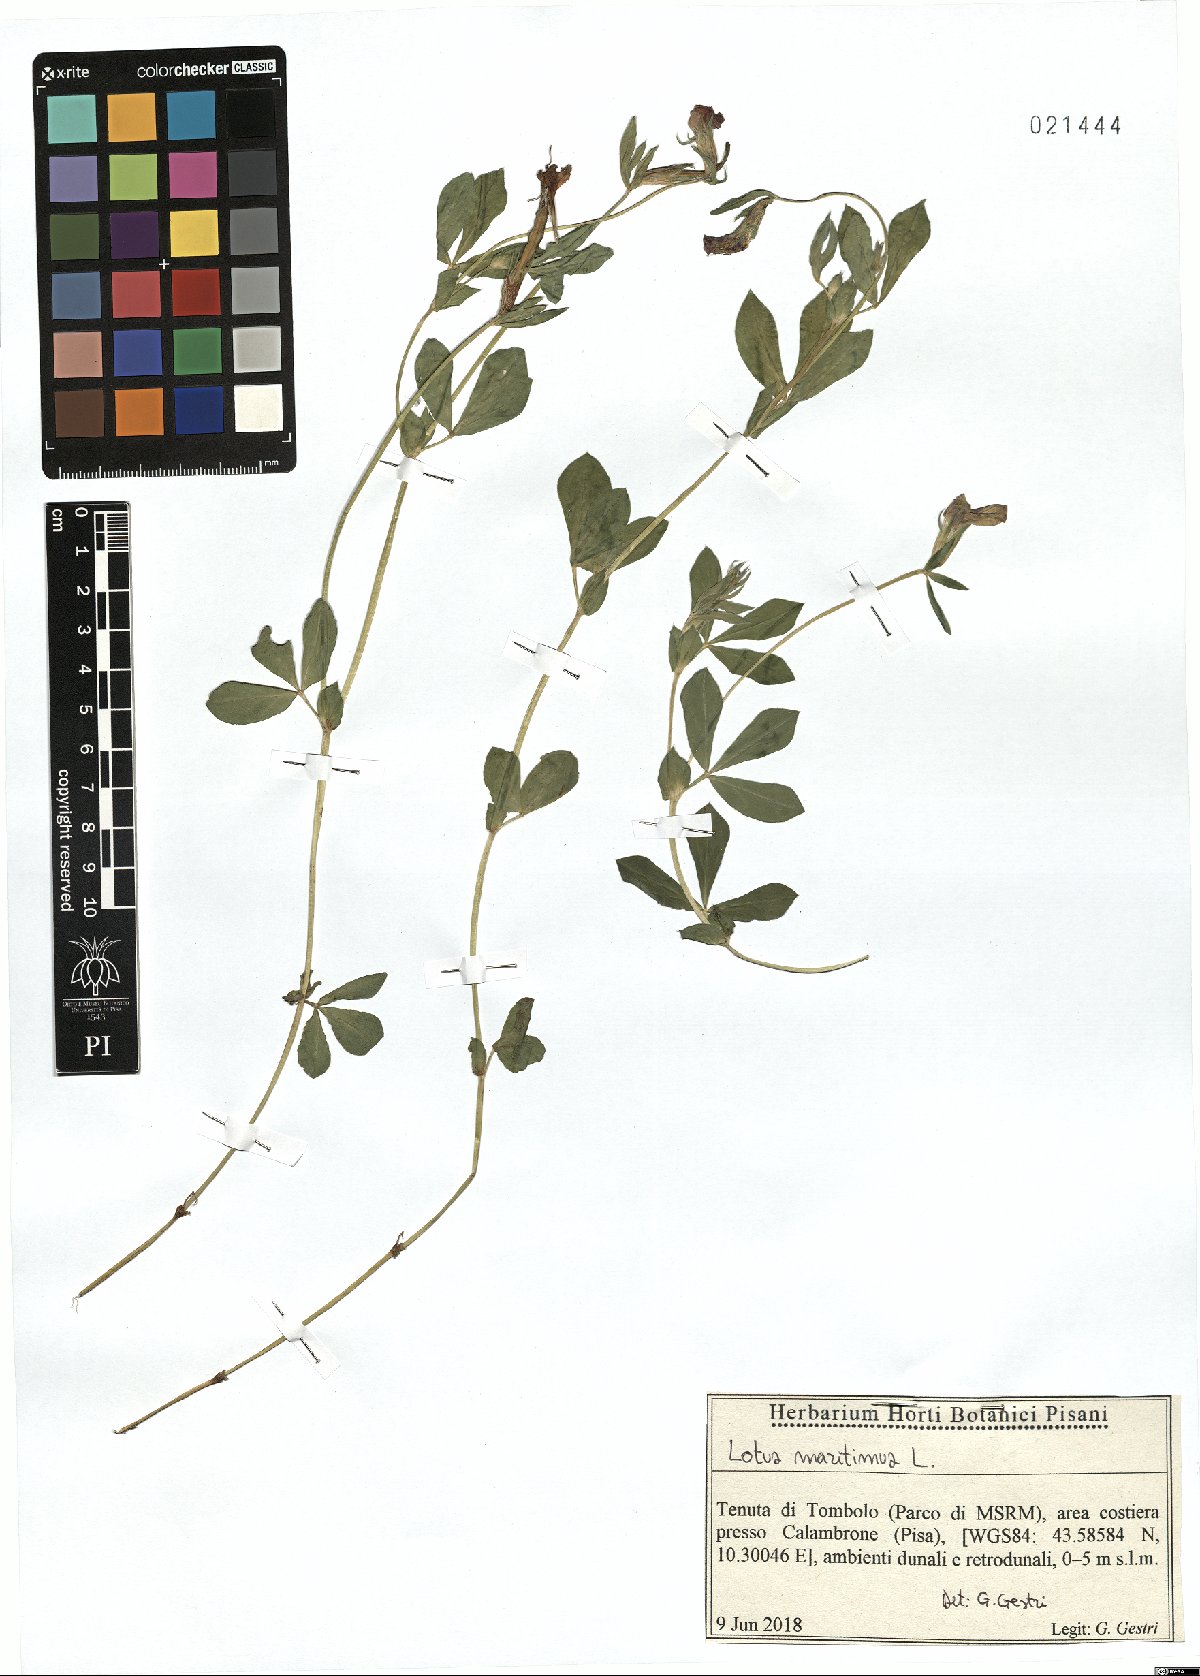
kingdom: Plantae
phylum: Tracheophyta
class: Magnoliopsida
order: Fabales
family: Fabaceae
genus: Lotus
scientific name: Lotus maritimus
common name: Dragon's-teeth
